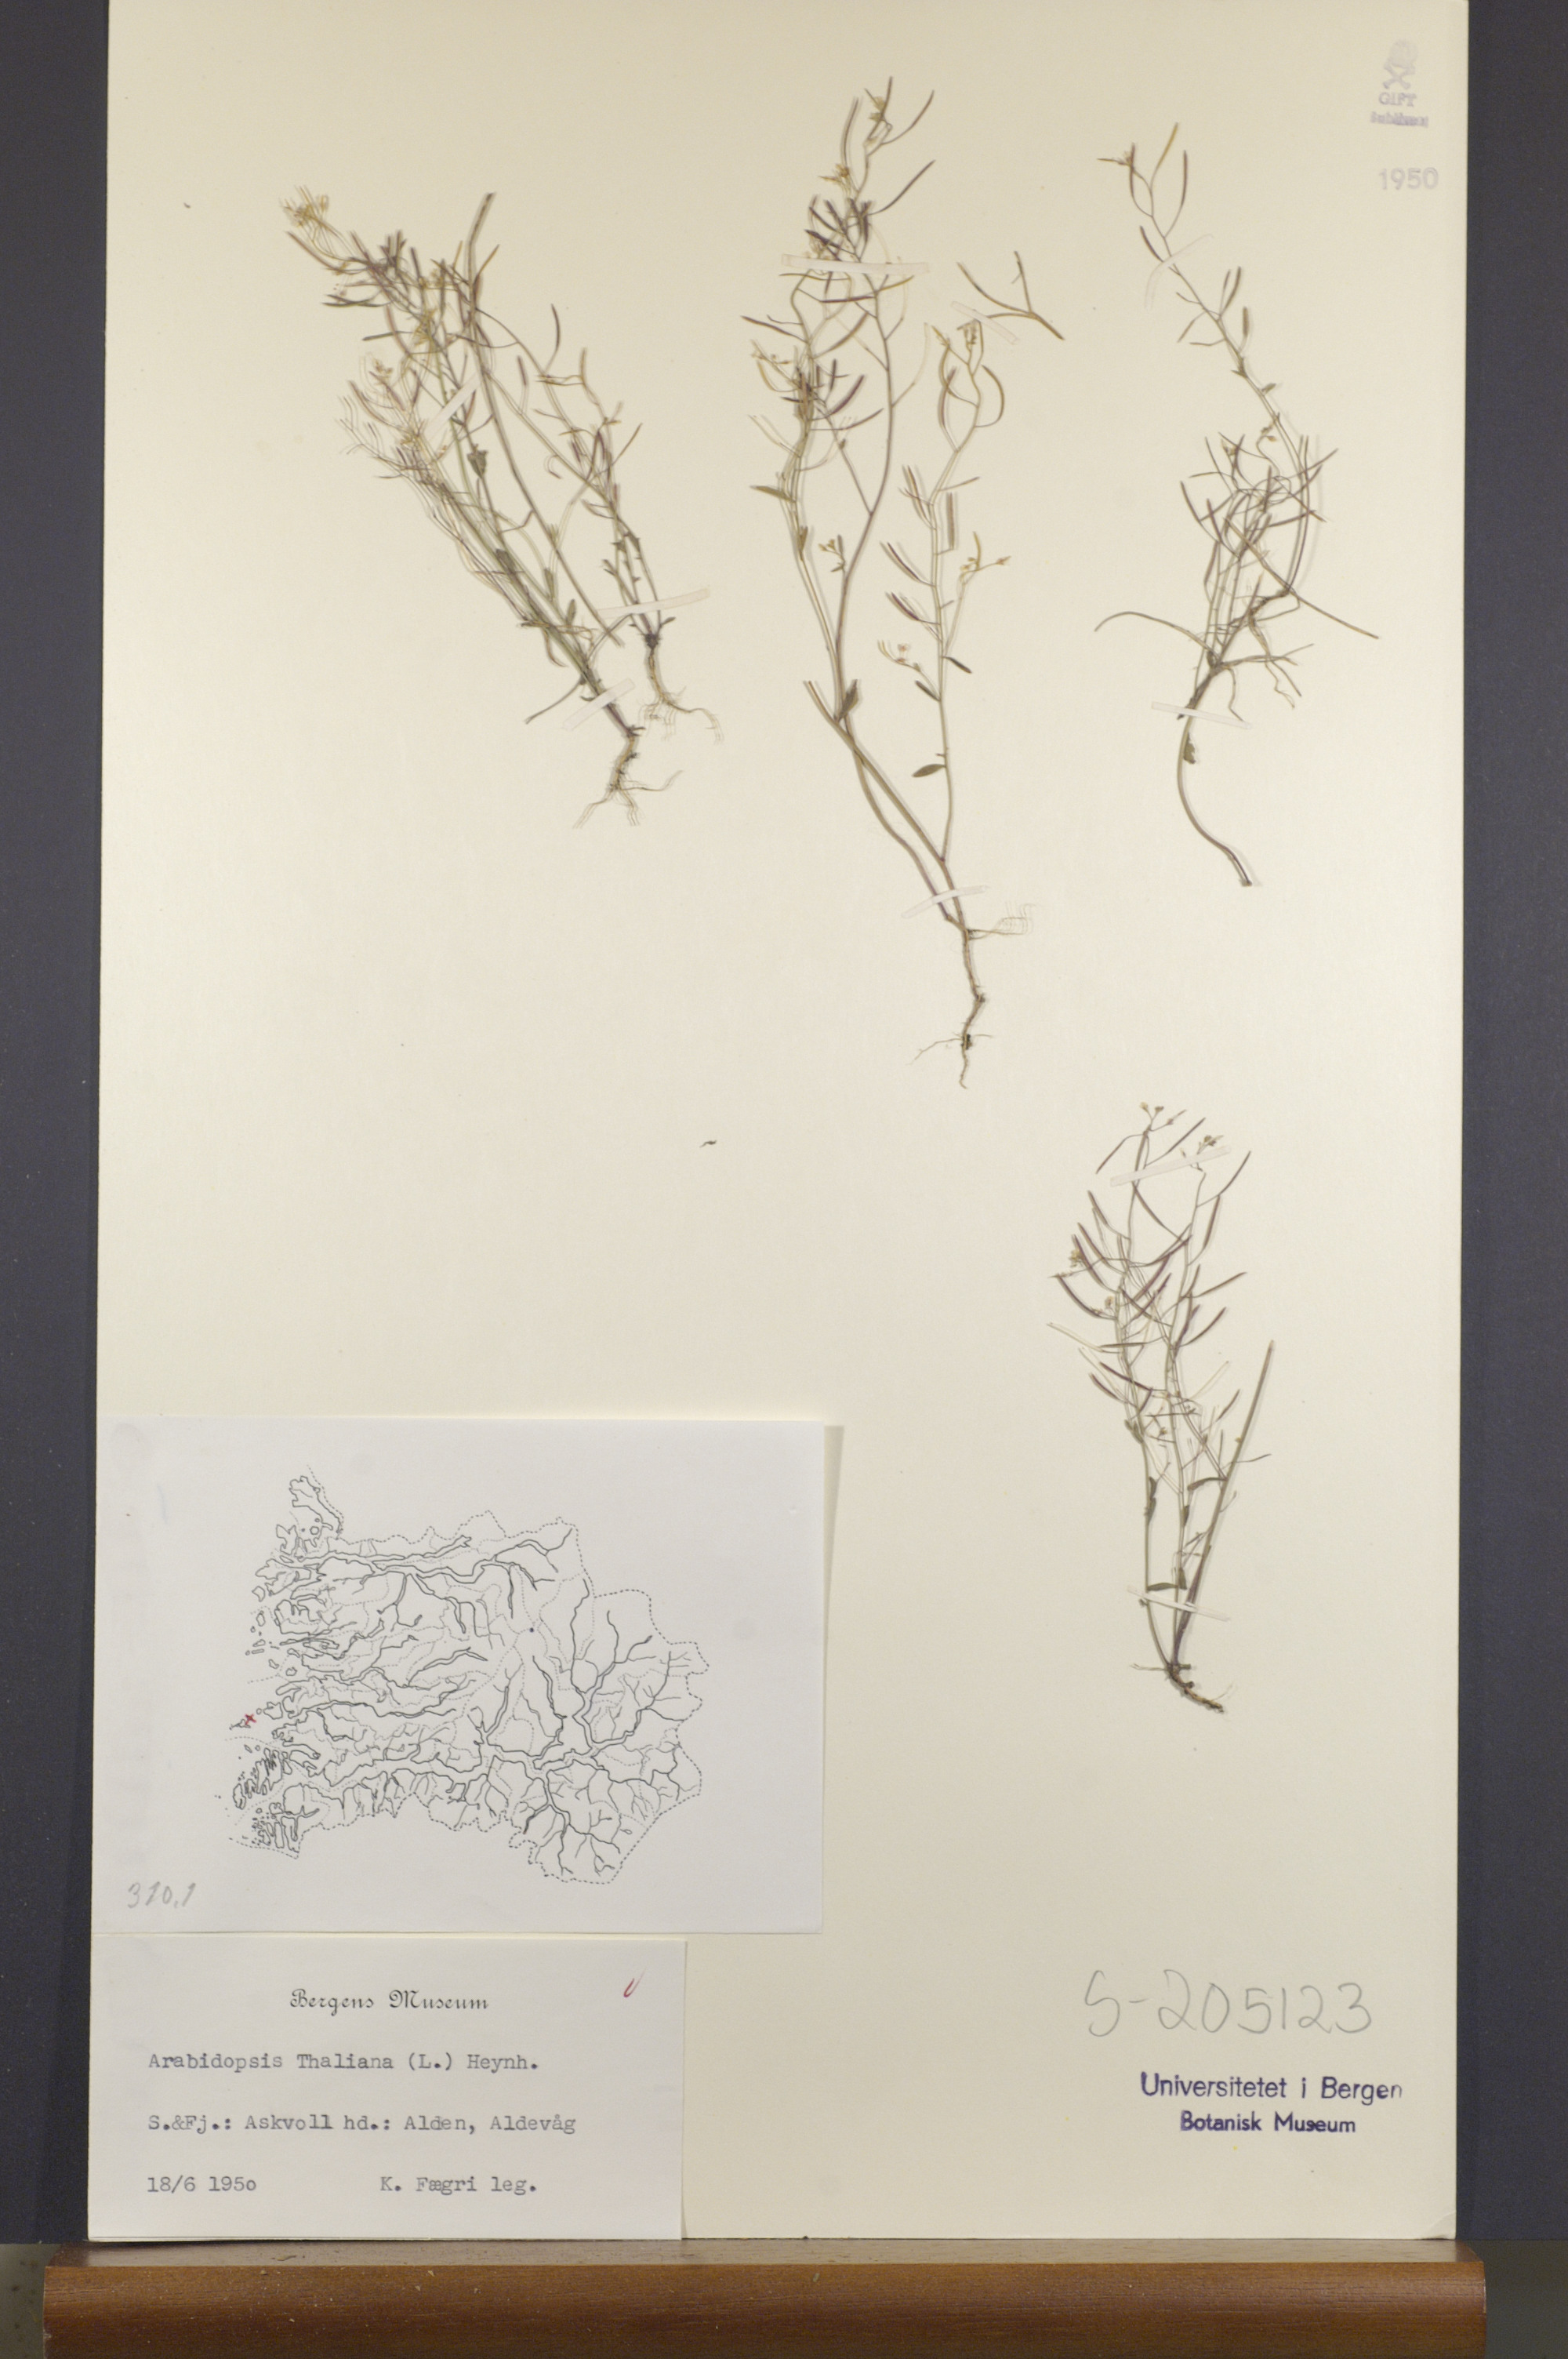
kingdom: Plantae
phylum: Tracheophyta
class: Magnoliopsida
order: Brassicales
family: Brassicaceae
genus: Arabidopsis
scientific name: Arabidopsis thaliana
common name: Thale cress
